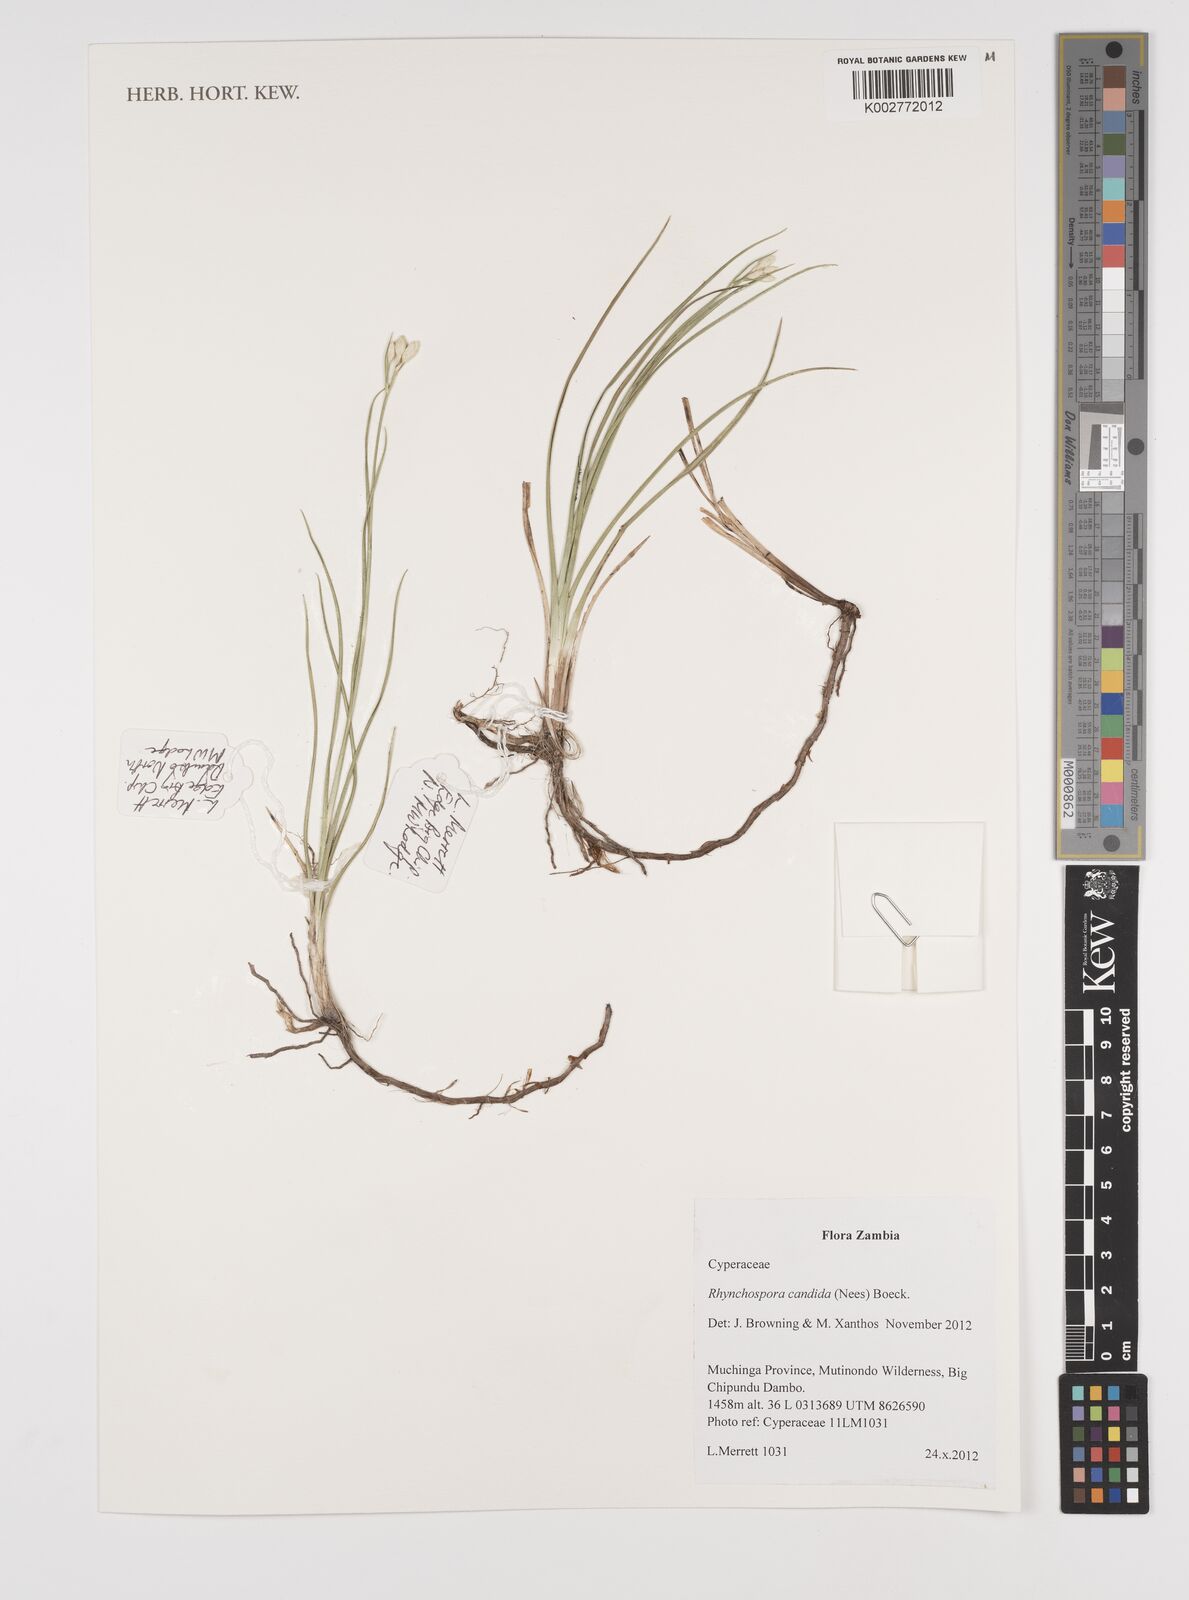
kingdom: Plantae
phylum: Tracheophyta
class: Liliopsida
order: Poales
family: Cyperaceae
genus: Rhynchospora
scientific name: Rhynchospora candida
